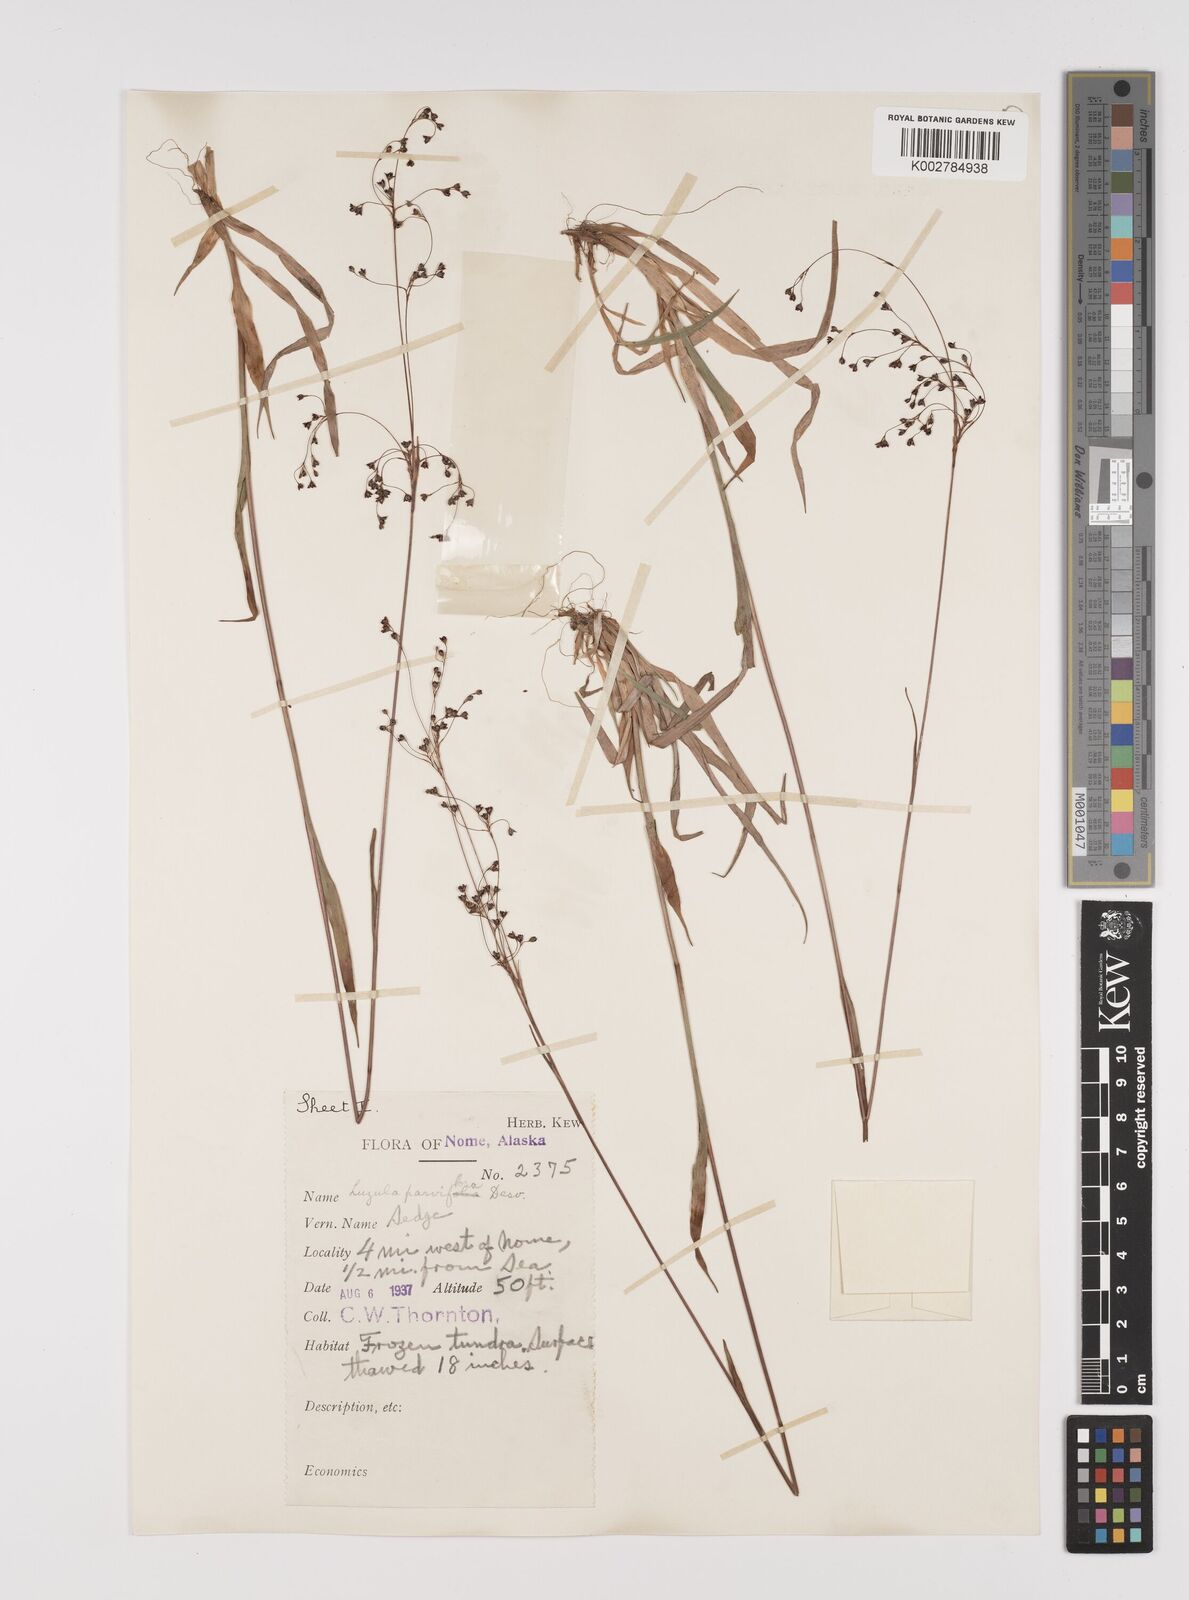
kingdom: Plantae
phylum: Tracheophyta
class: Liliopsida
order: Poales
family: Juncaceae
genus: Luzula
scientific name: Luzula parviflora
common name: Millet woodrush
